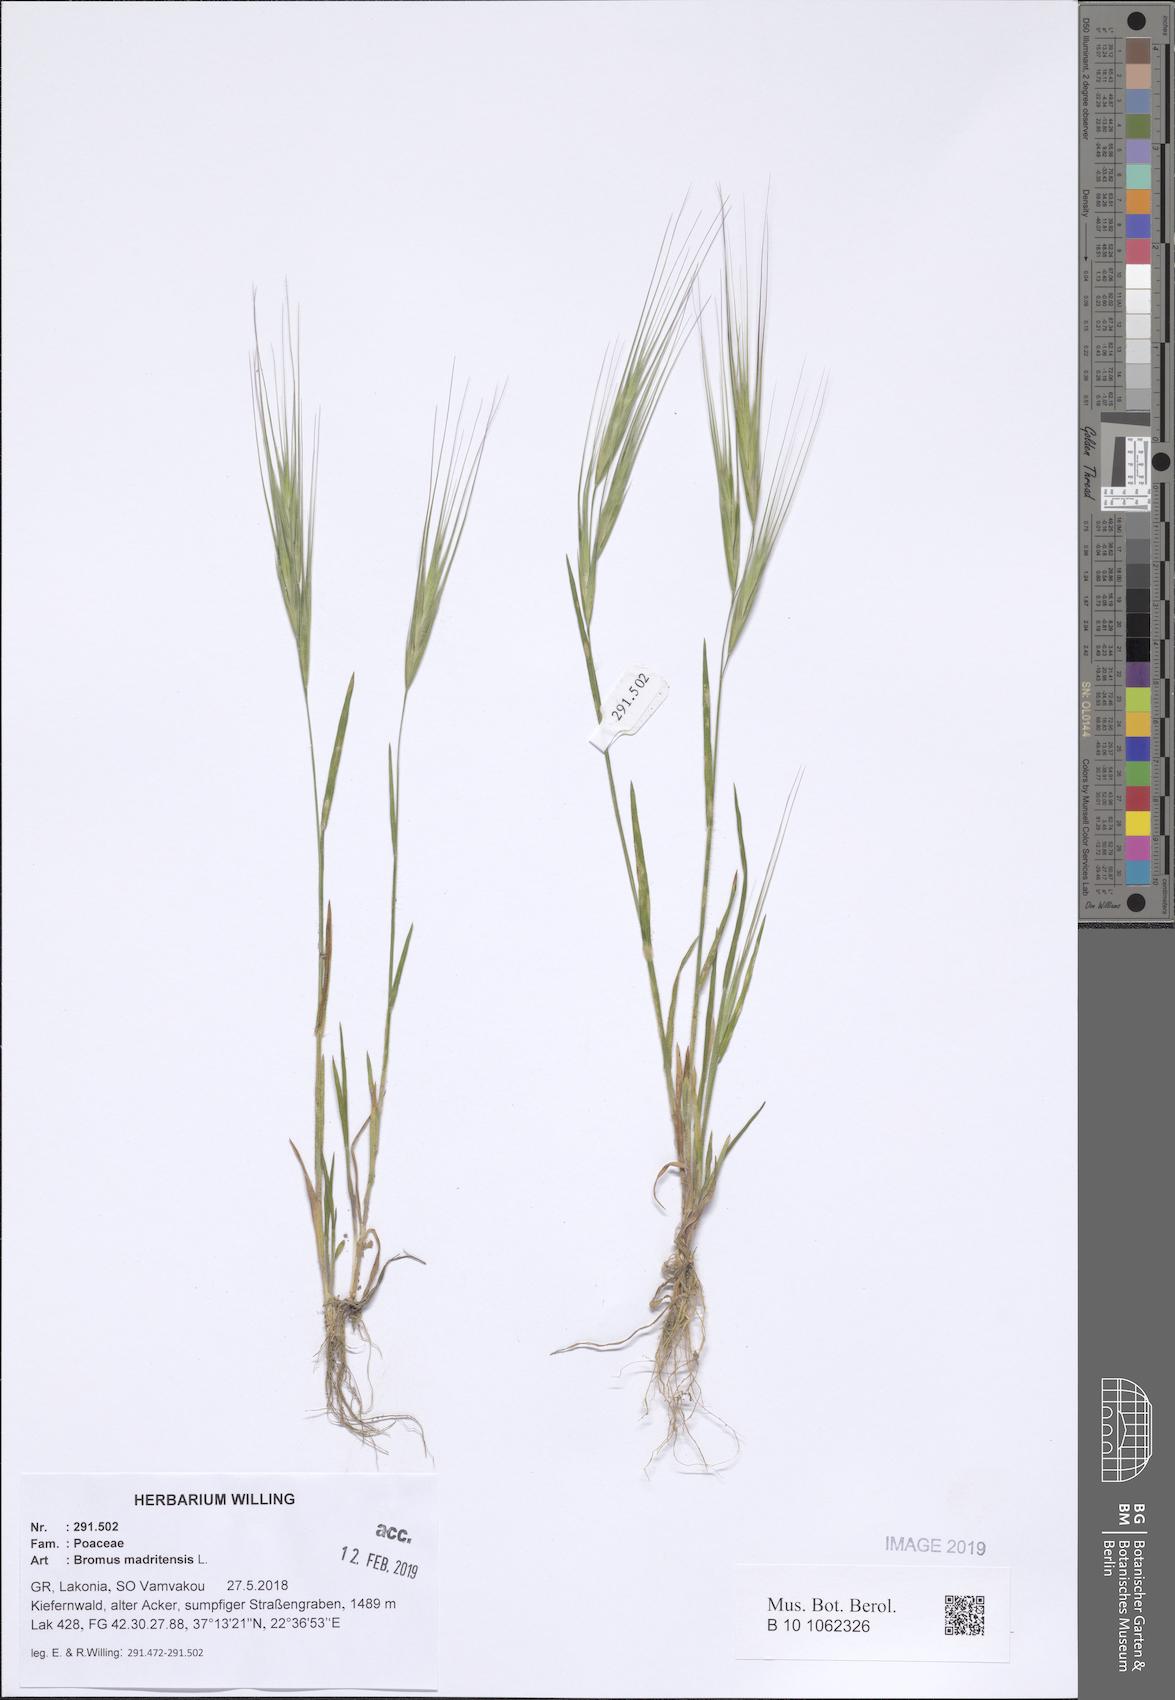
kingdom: Plantae
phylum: Tracheophyta
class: Liliopsida
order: Poales
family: Poaceae
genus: Bromus
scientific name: Bromus madritensis
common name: Compact brome
